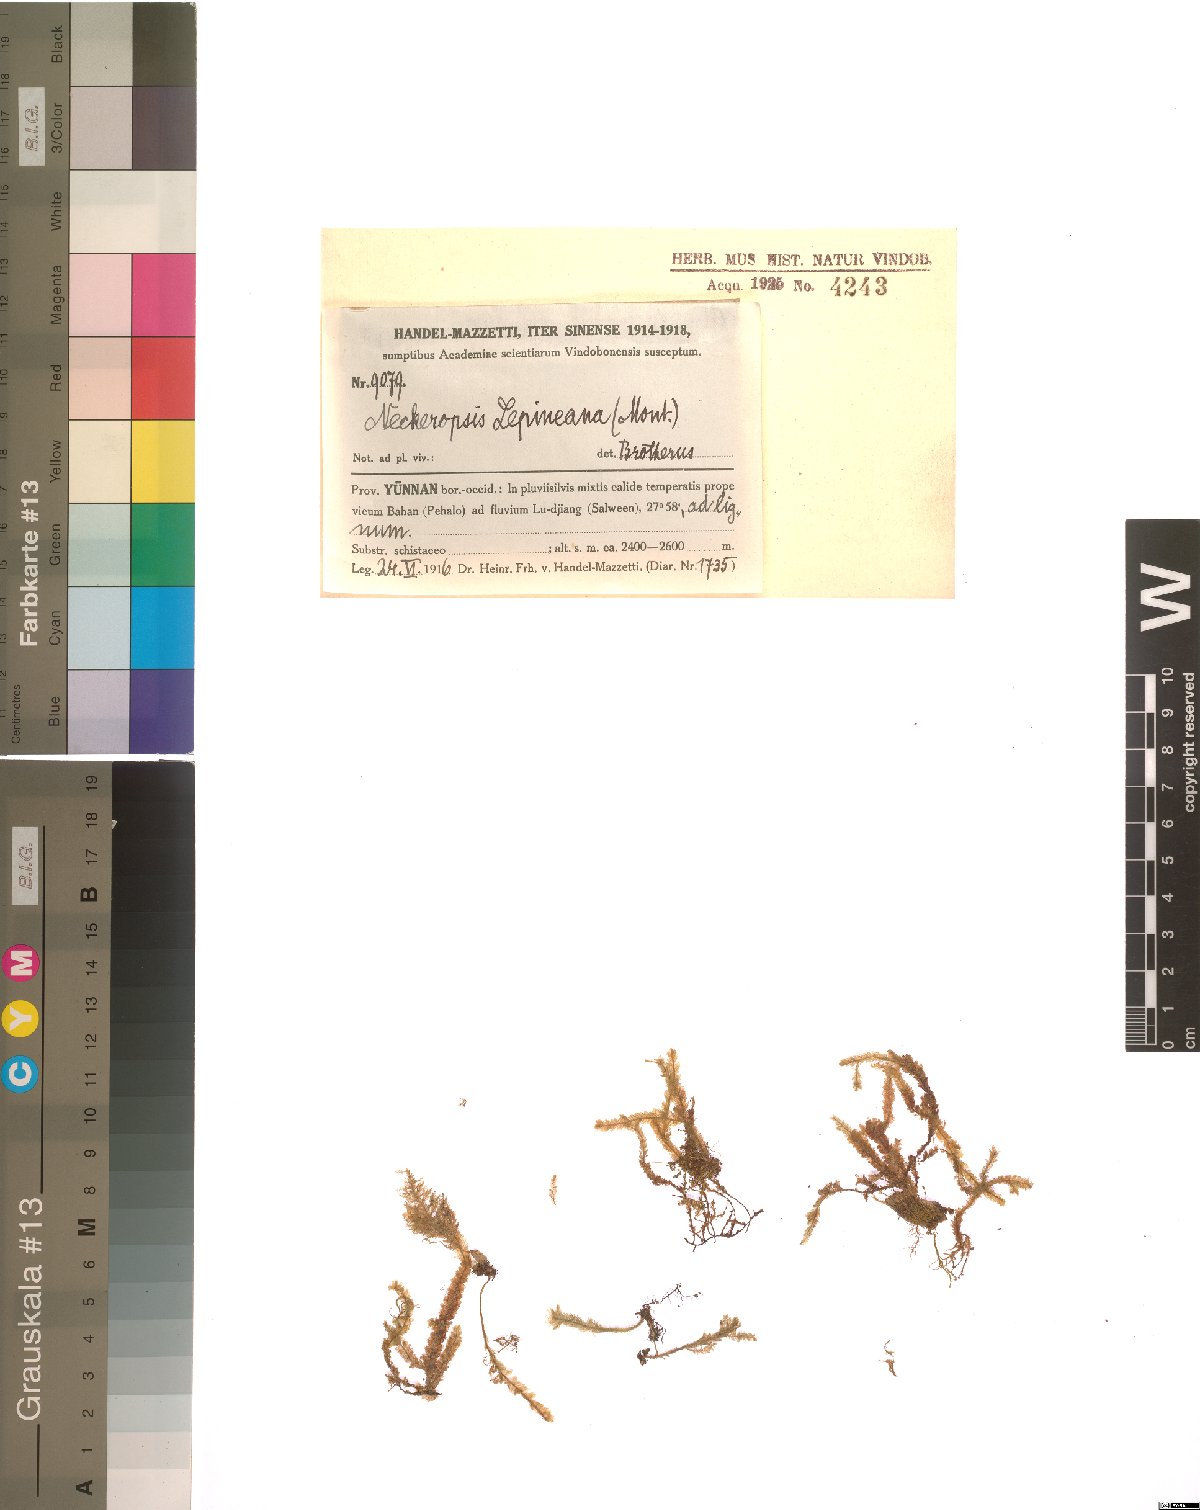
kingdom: Plantae
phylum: Bryophyta
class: Bryopsida
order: Hypnales
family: Neckeraceae
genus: Neckeromnion
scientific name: Neckeromnion lepineanum
